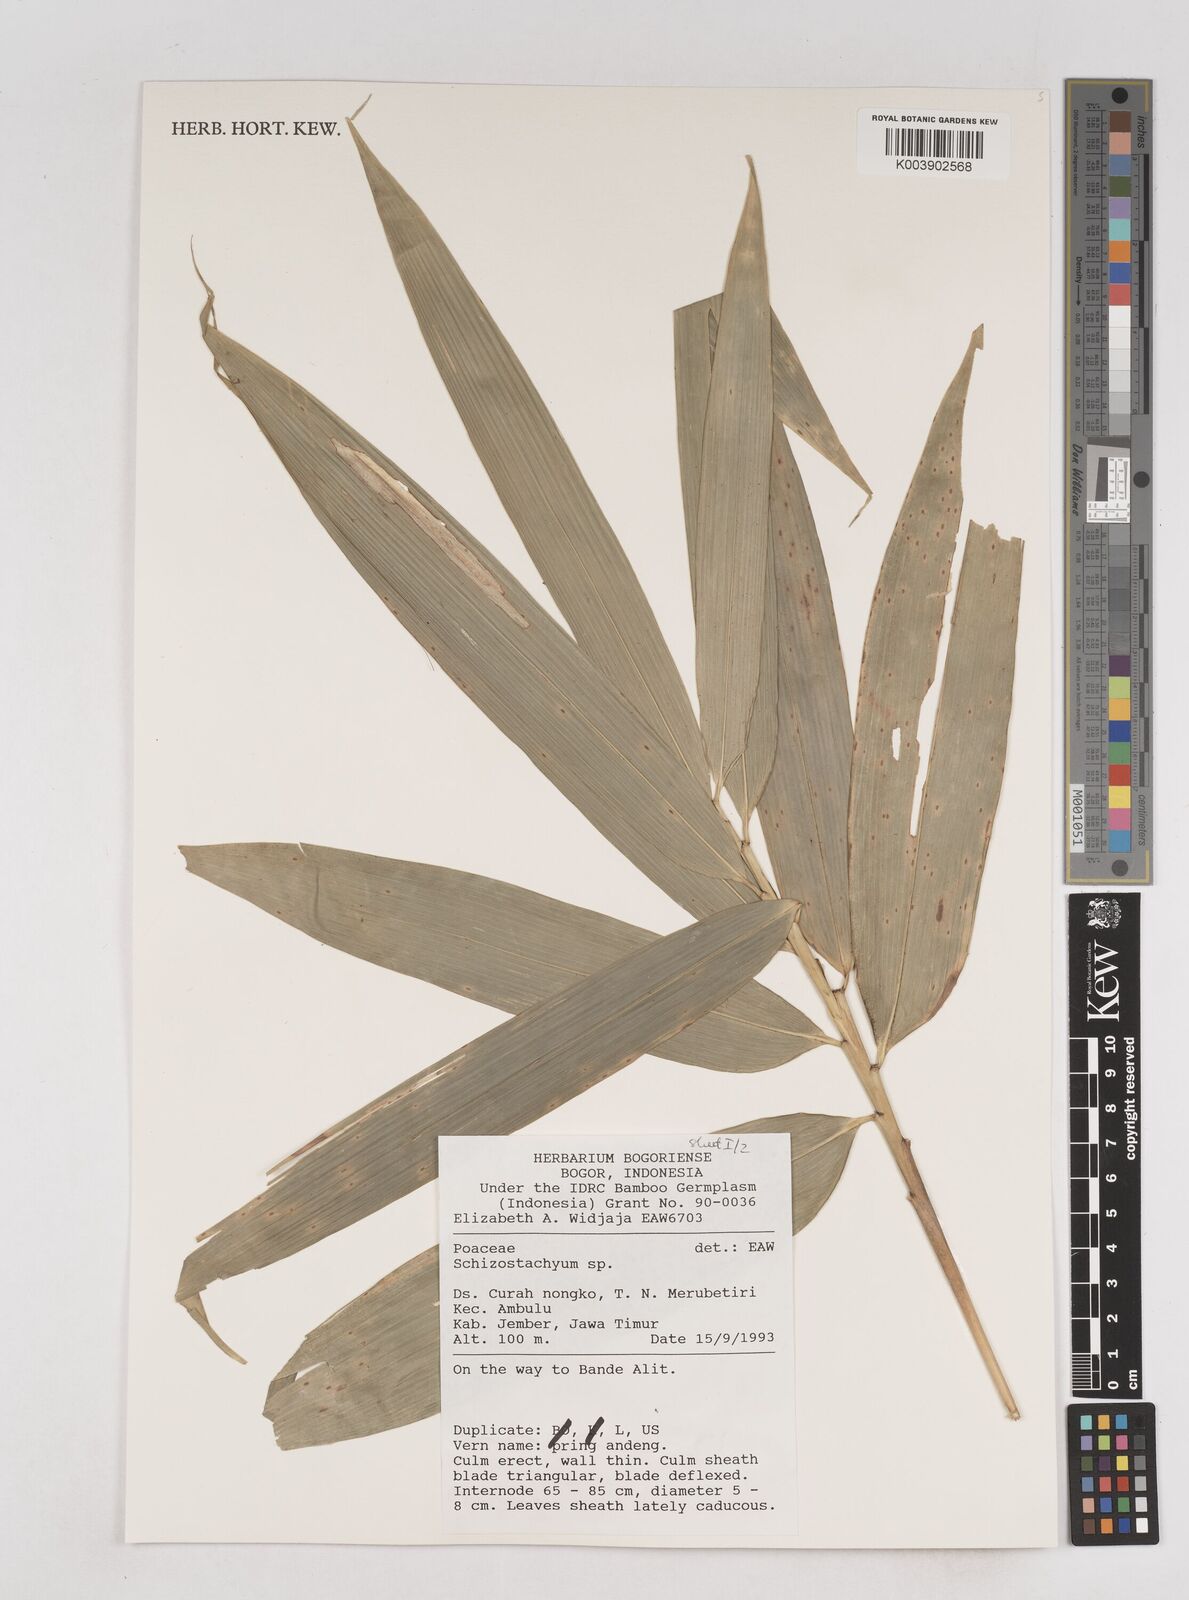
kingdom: Plantae
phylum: Tracheophyta
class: Liliopsida
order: Poales
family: Poaceae
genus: Schizostachyum
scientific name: Schizostachyum
